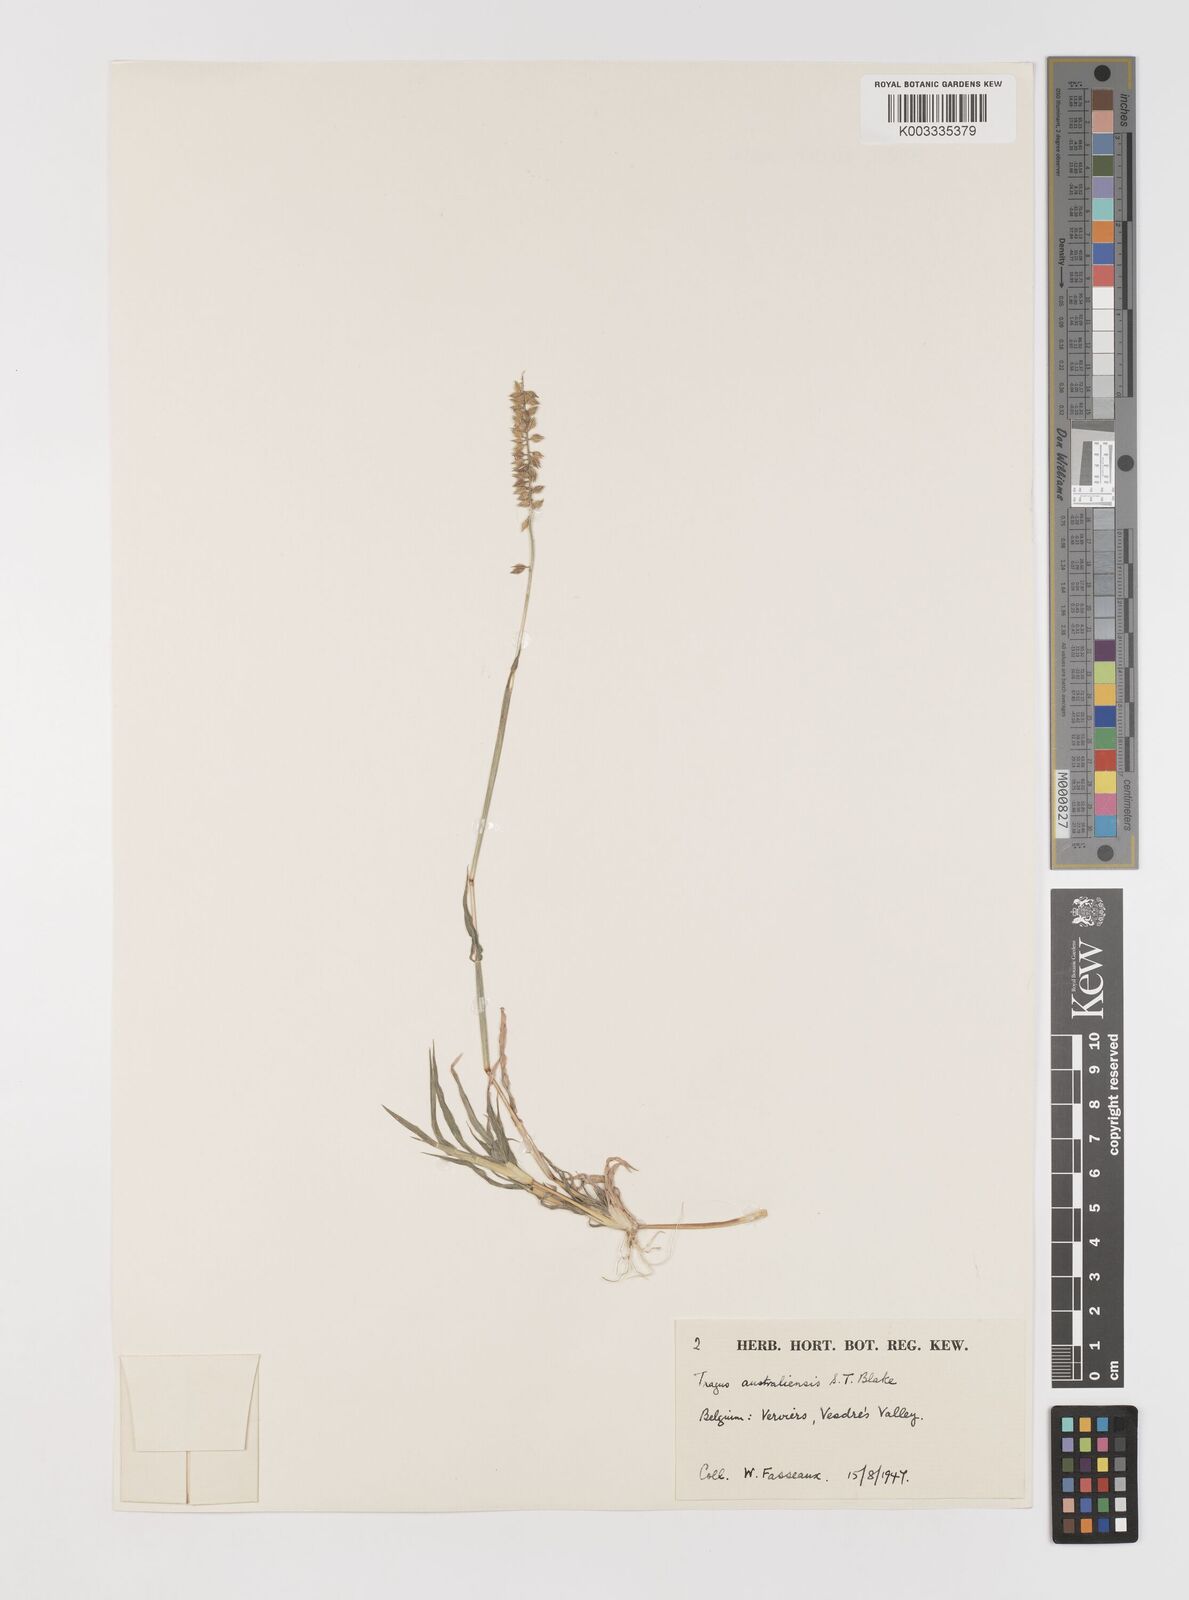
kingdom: Plantae
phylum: Tracheophyta
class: Liliopsida
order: Poales
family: Poaceae
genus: Tragus
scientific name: Tragus australianus
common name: Australian bur-grass
